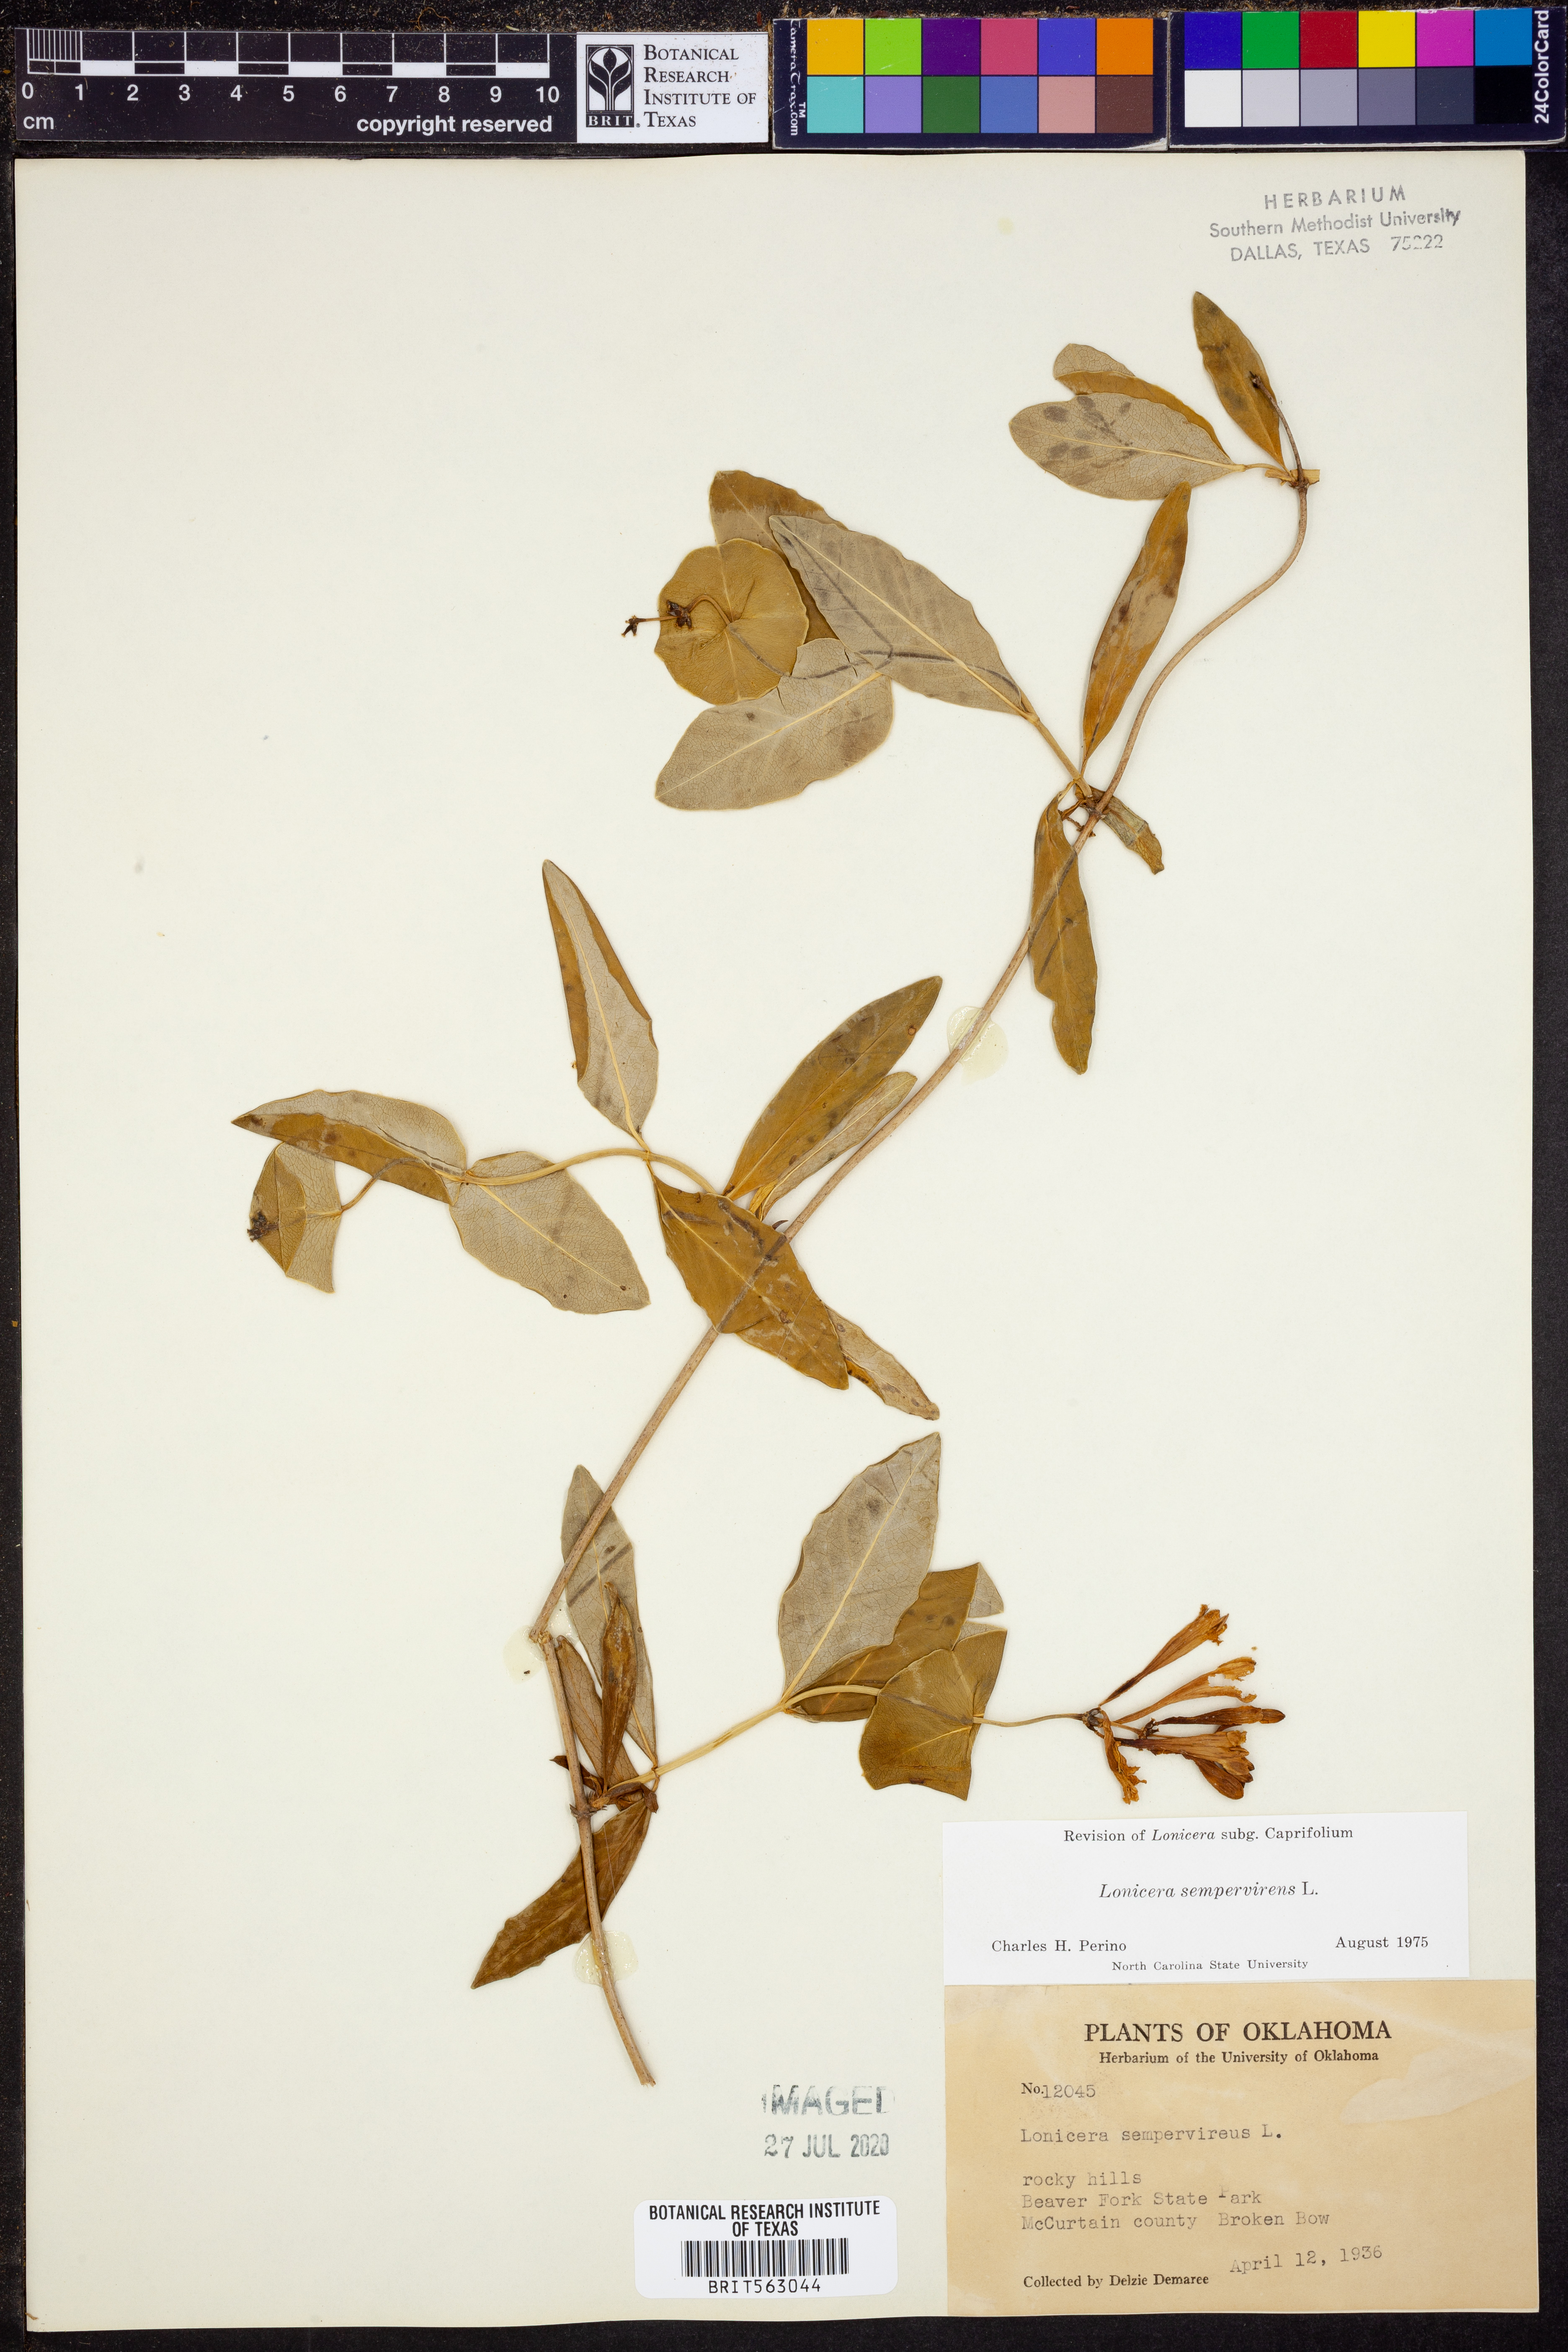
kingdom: Plantae
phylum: Tracheophyta
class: Magnoliopsida
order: Dipsacales
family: Caprifoliaceae
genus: Lonicera
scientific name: Lonicera sempervirens
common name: Coral honeysuckle
